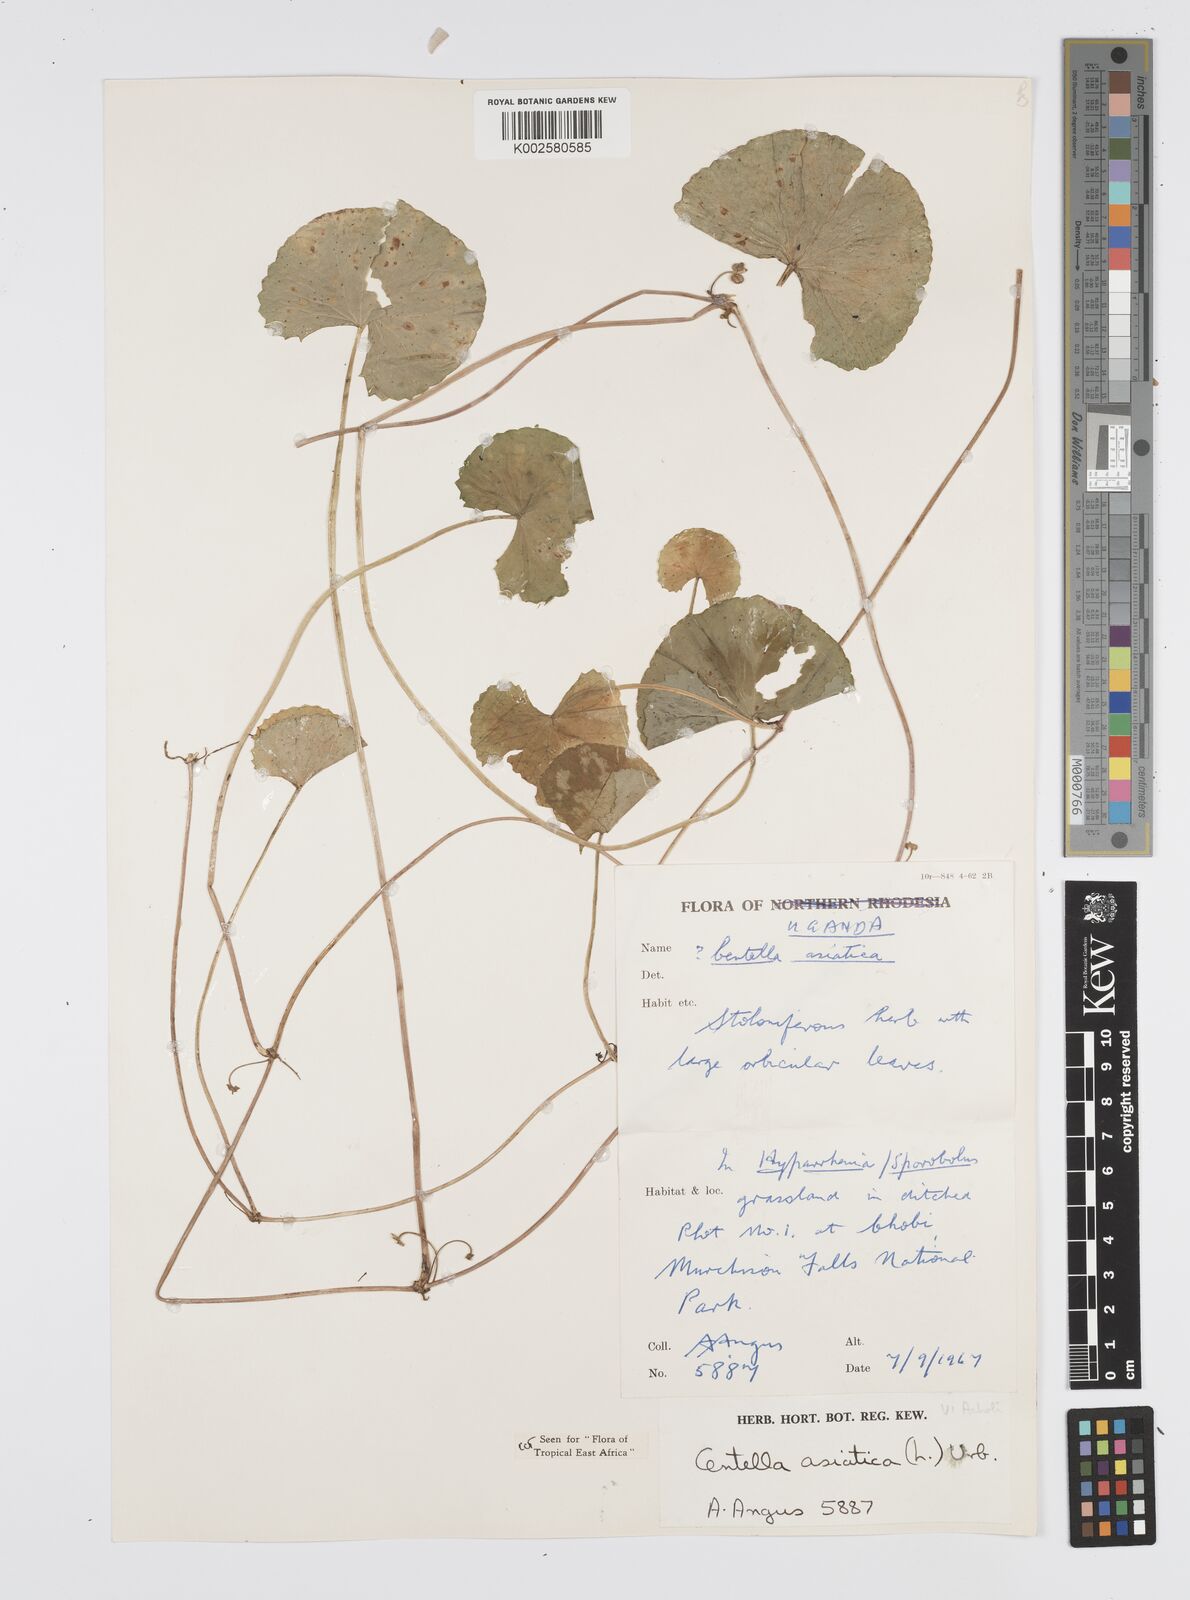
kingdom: Plantae
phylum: Tracheophyta
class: Magnoliopsida
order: Apiales
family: Apiaceae
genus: Centella
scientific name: Centella asiatica
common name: Spadeleaf
